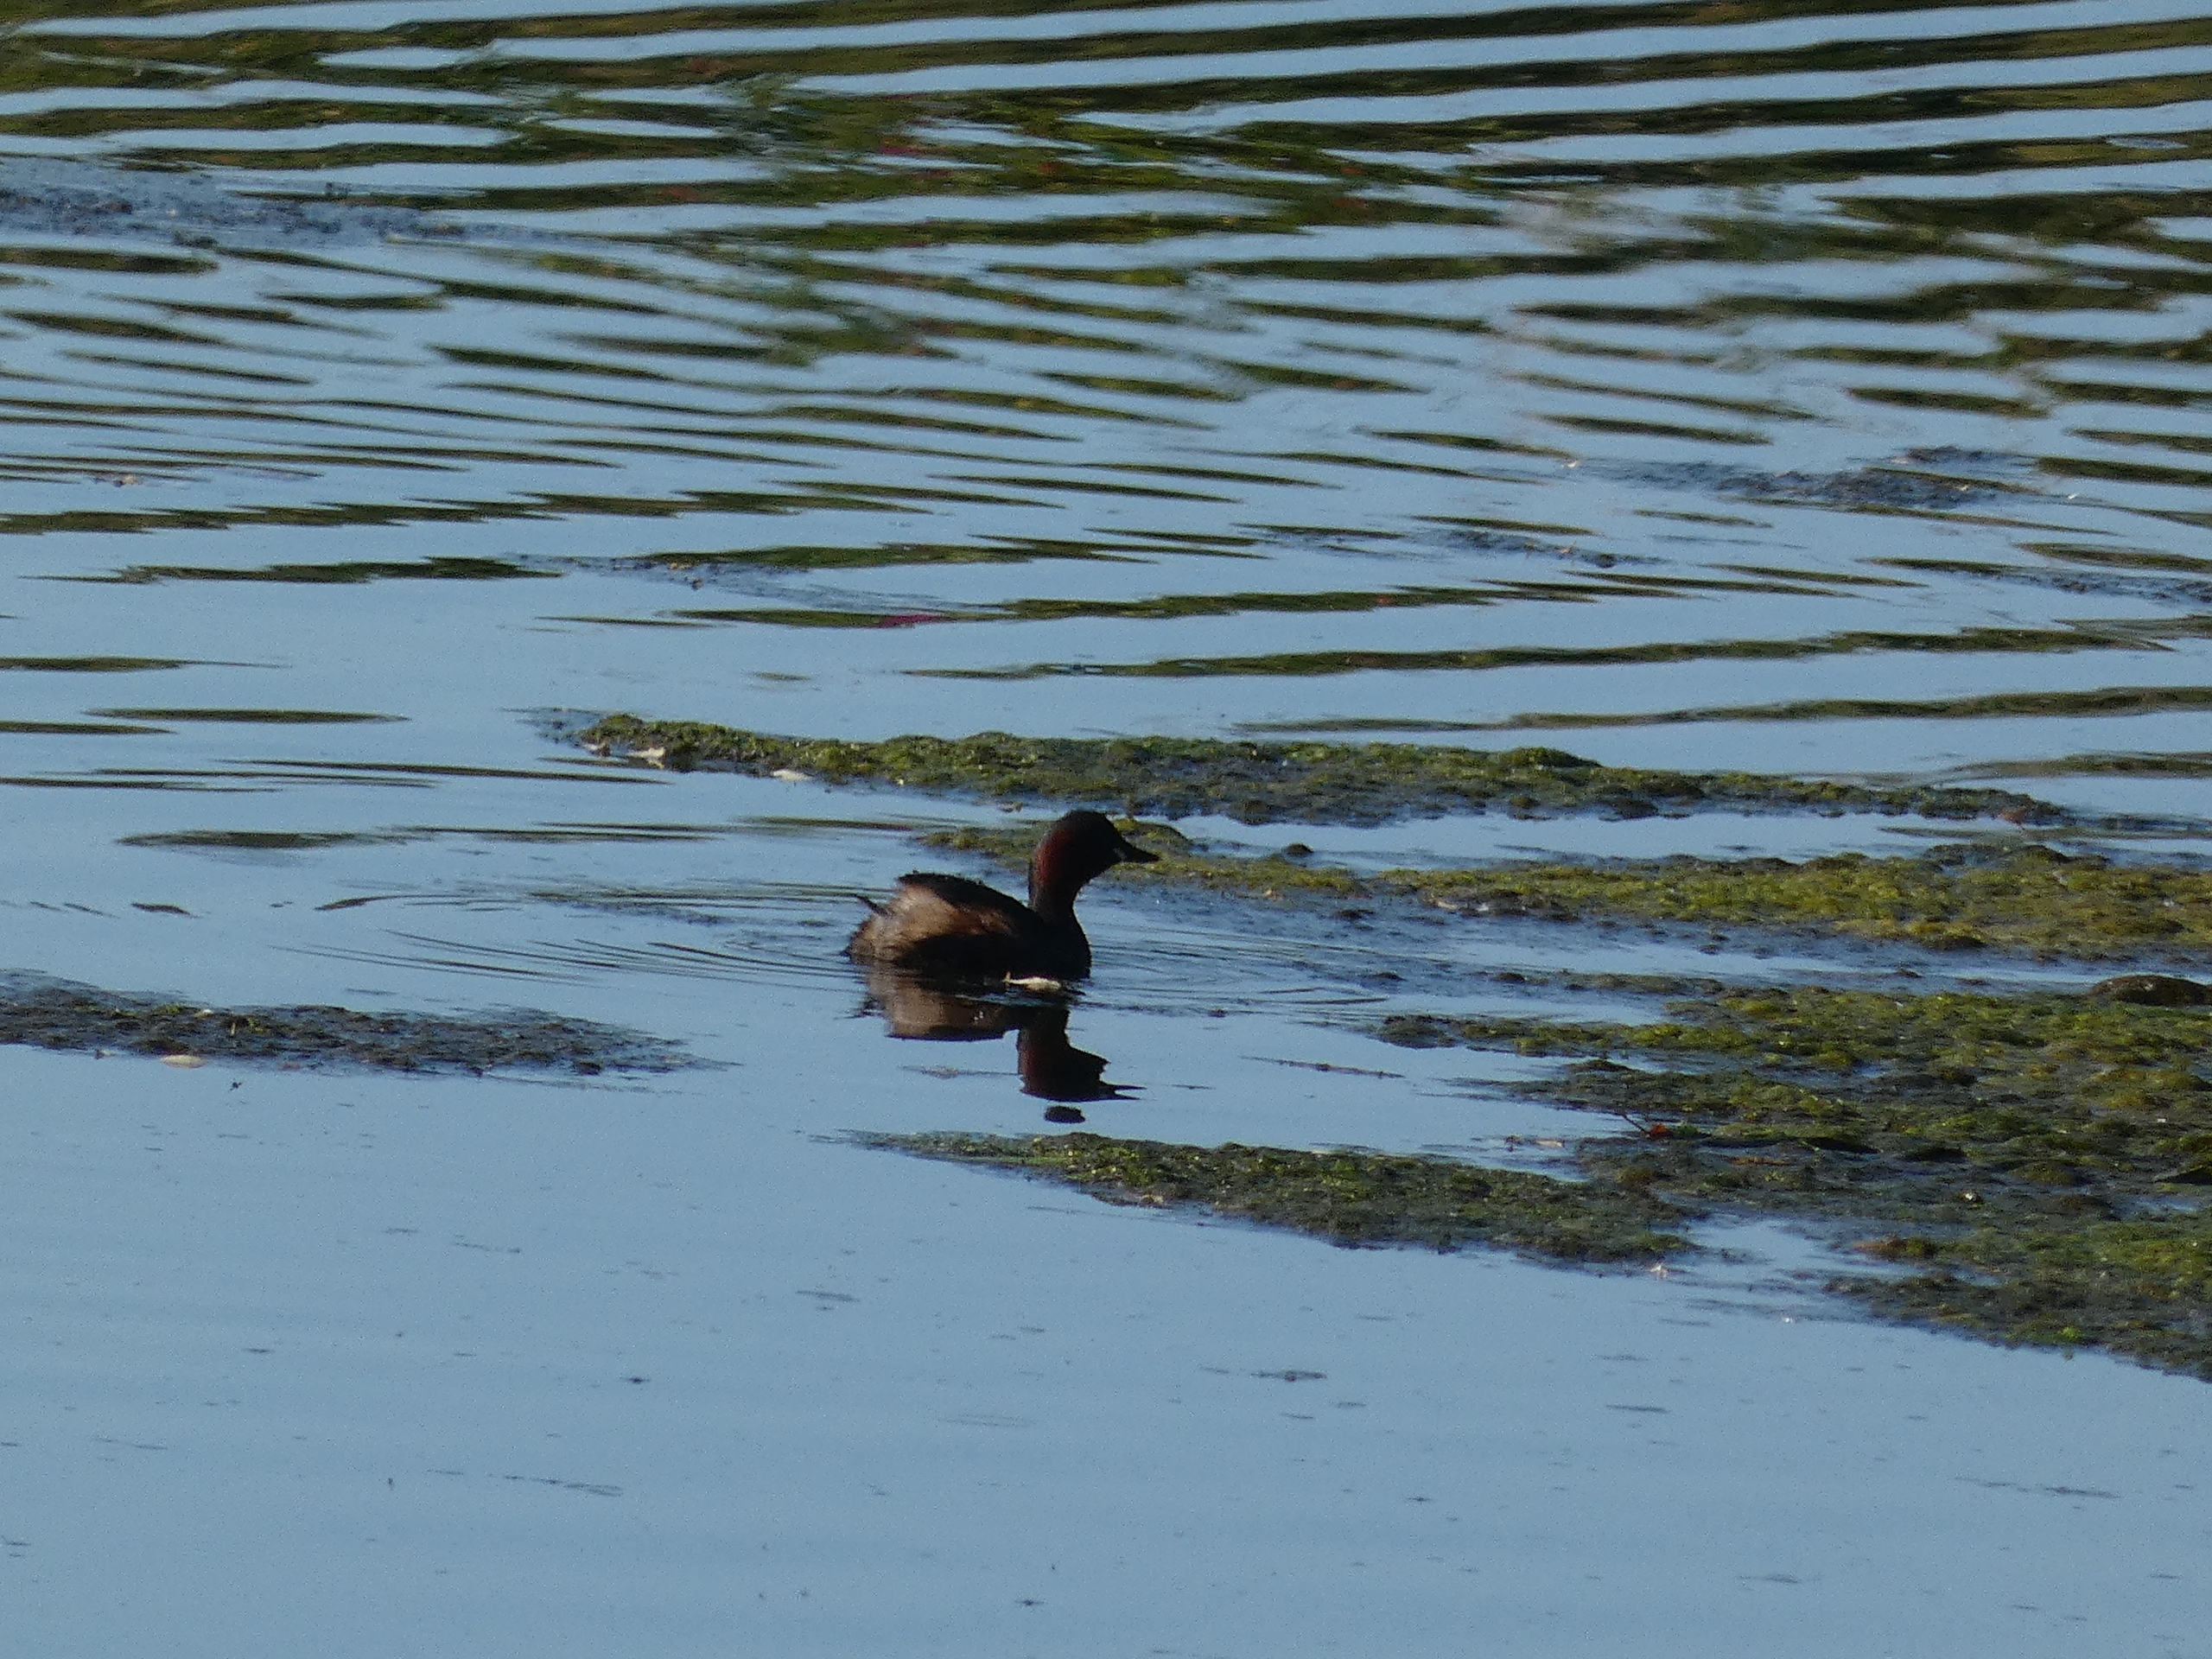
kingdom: Animalia
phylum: Chordata
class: Aves
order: Podicipediformes
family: Podicipedidae
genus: Tachybaptus
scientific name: Tachybaptus ruficollis
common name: Lille lappedykker
